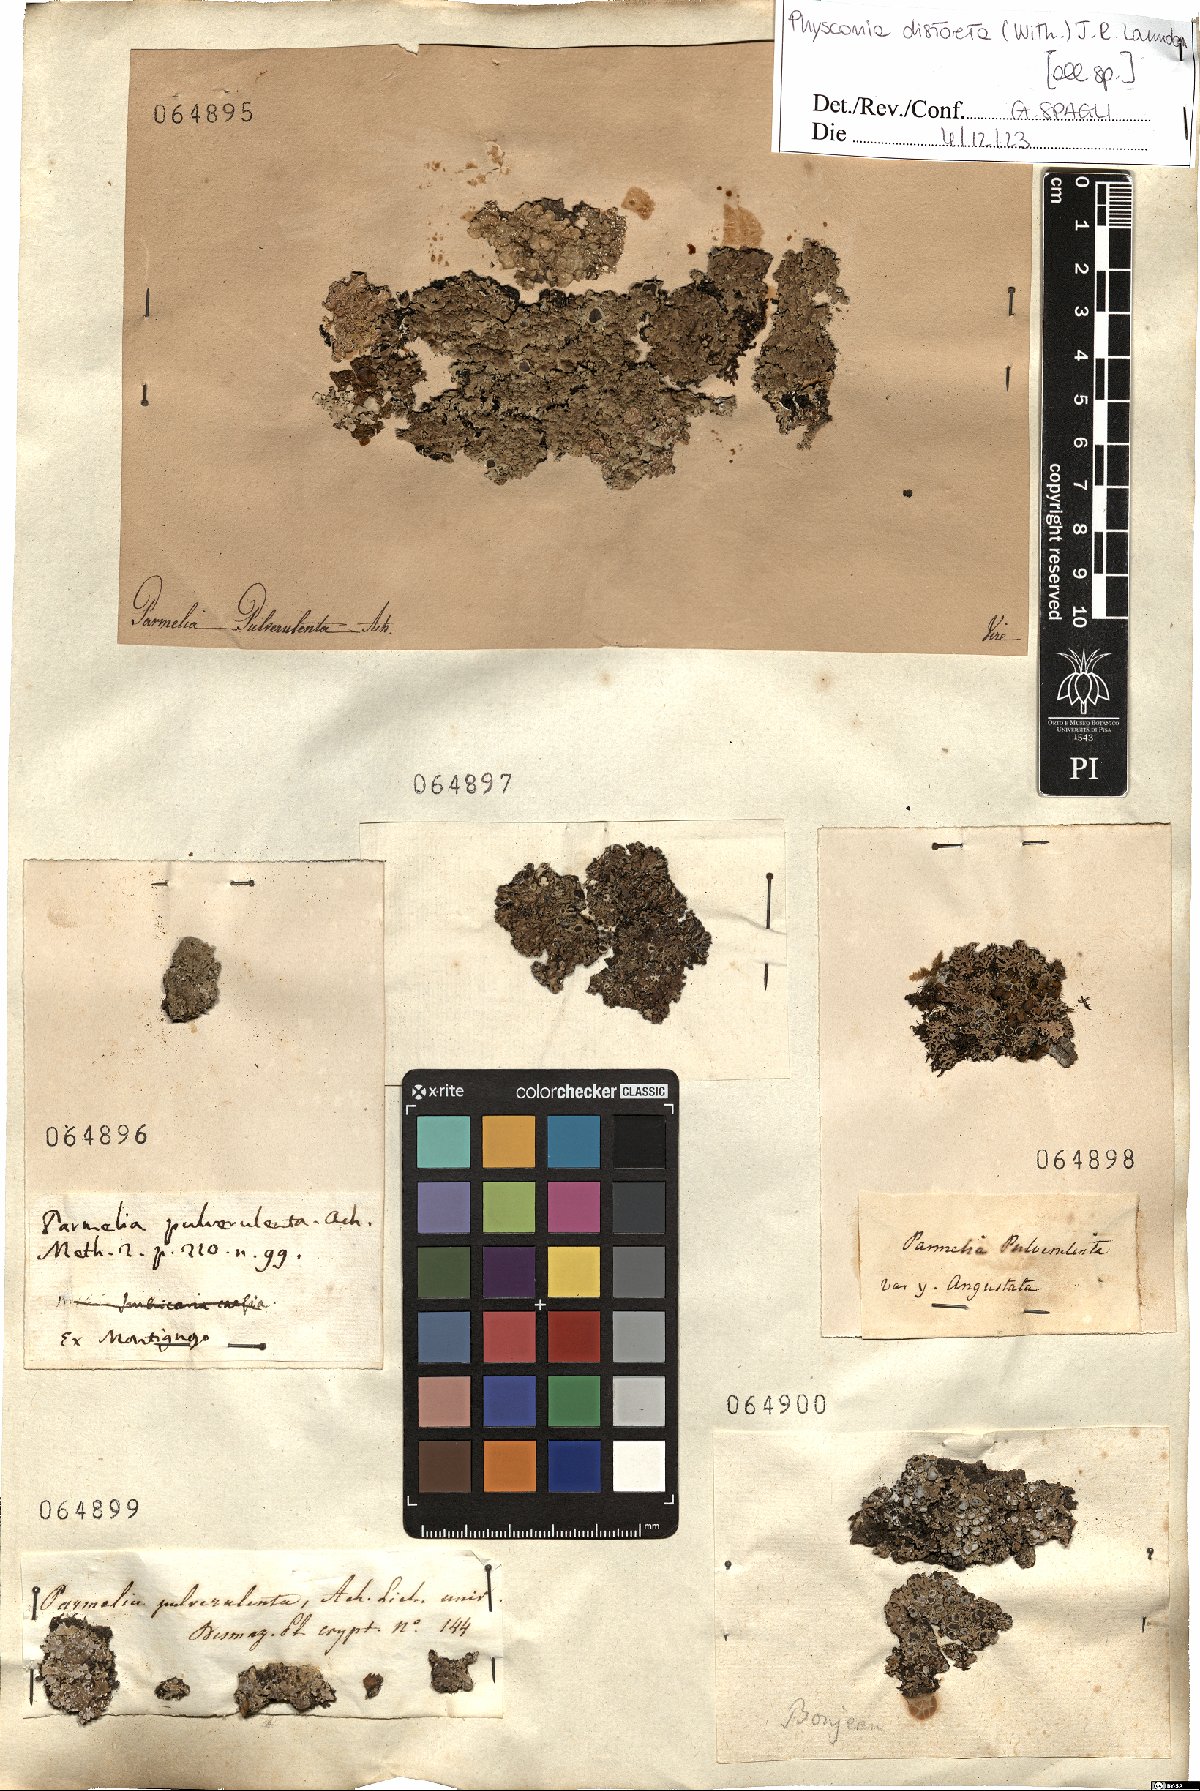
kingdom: Fungi
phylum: Ascomycota
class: Lecanoromycetes
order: Caliciales
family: Physciaceae
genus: Physconia
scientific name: Physconia distorta
